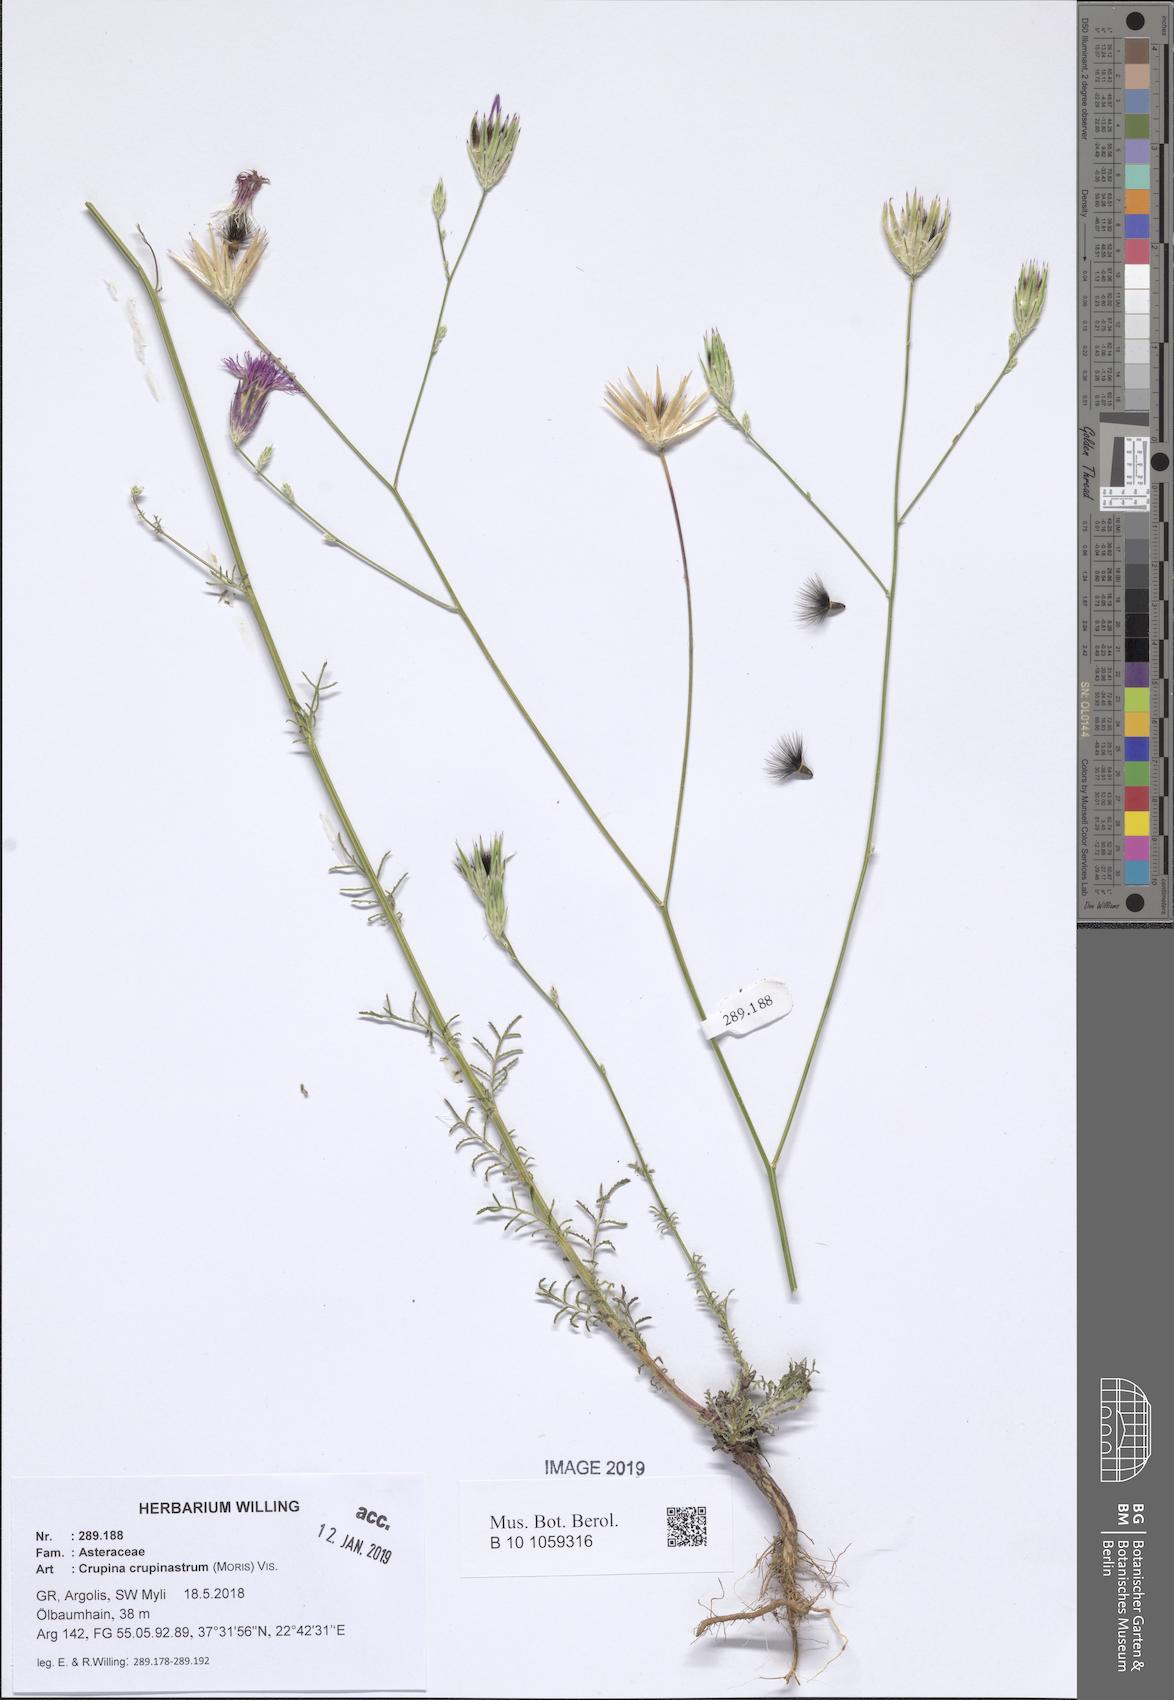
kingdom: Plantae
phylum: Tracheophyta
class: Magnoliopsida
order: Asterales
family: Asteraceae
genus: Crupina
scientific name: Crupina crupinastrum
